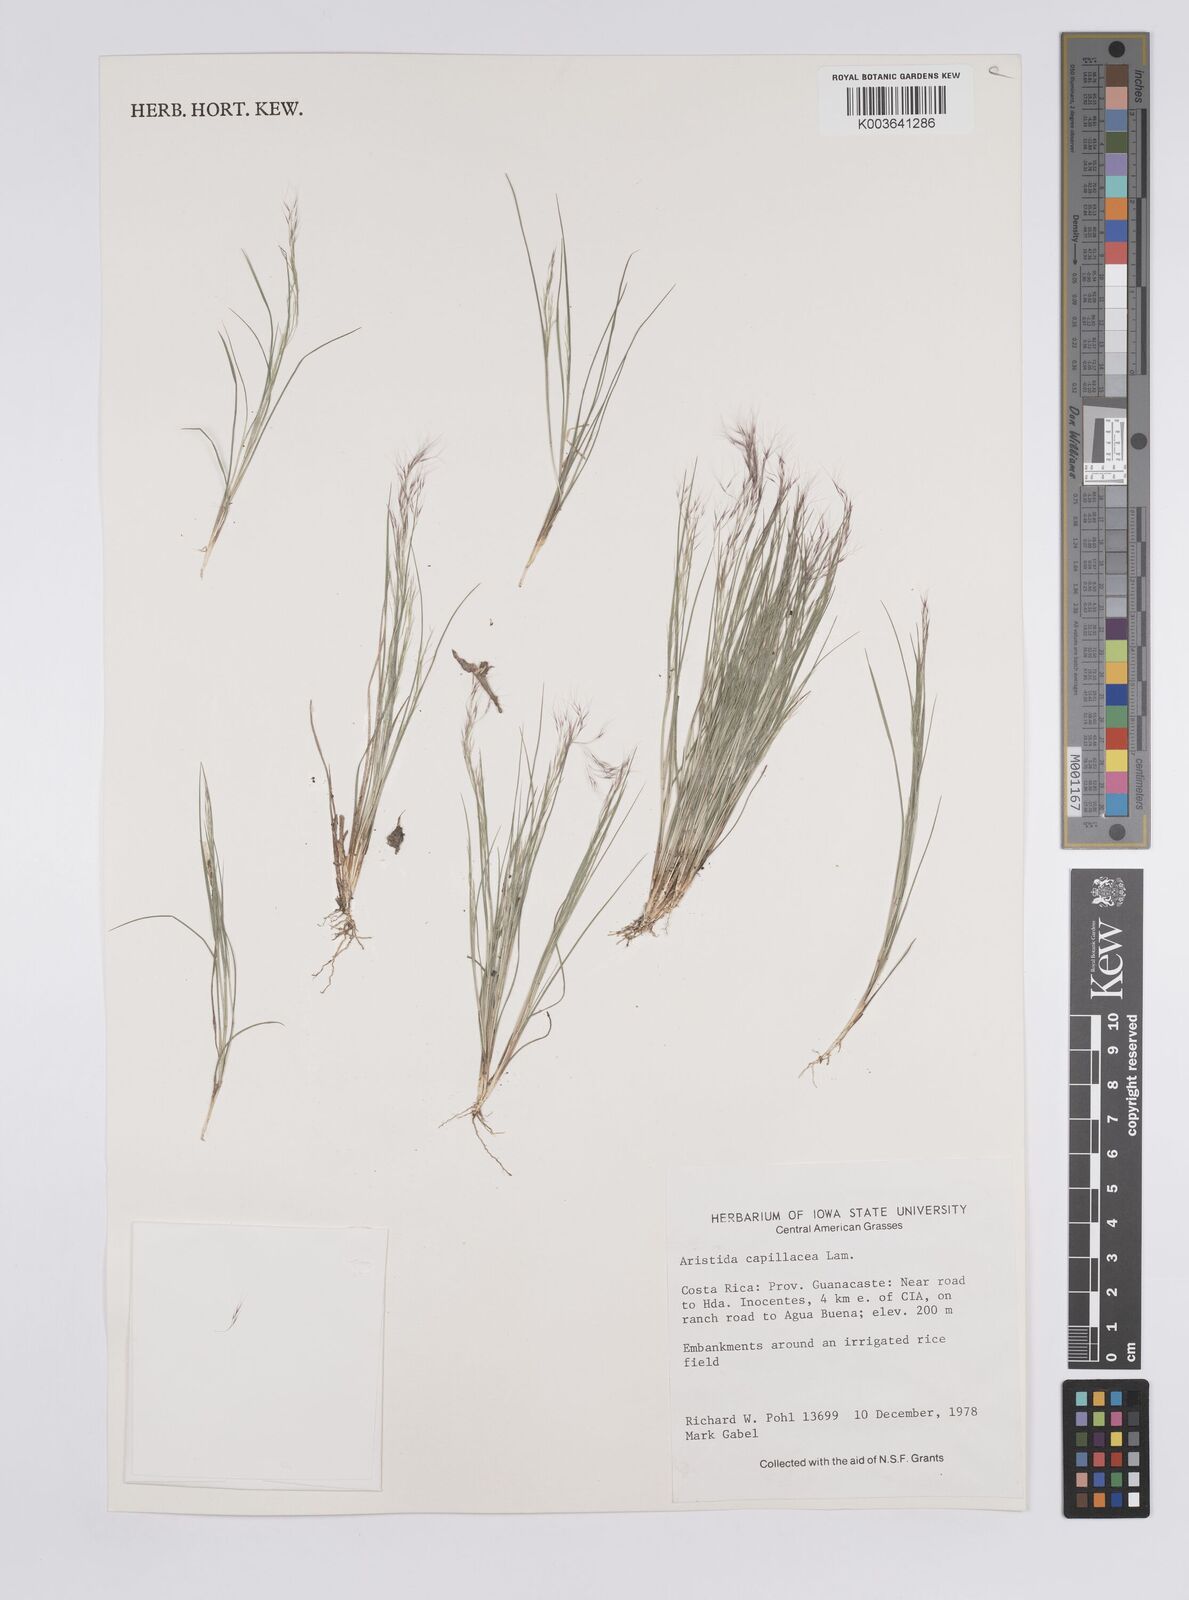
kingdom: Plantae
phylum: Tracheophyta
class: Liliopsida
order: Poales
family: Poaceae
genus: Aristida
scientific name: Aristida
